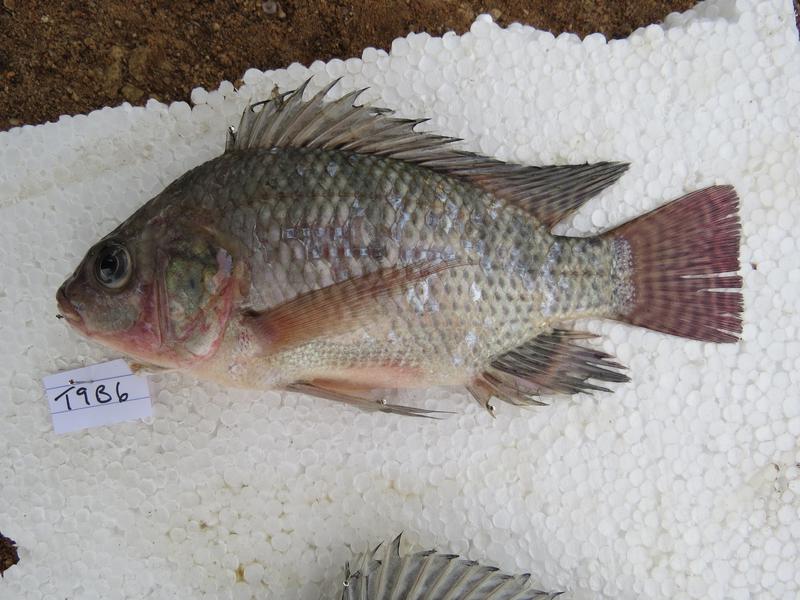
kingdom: Animalia
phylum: Chordata
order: Perciformes
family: Cichlidae
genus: Oreochromis
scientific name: Oreochromis niloticus
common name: Nile tilapia
